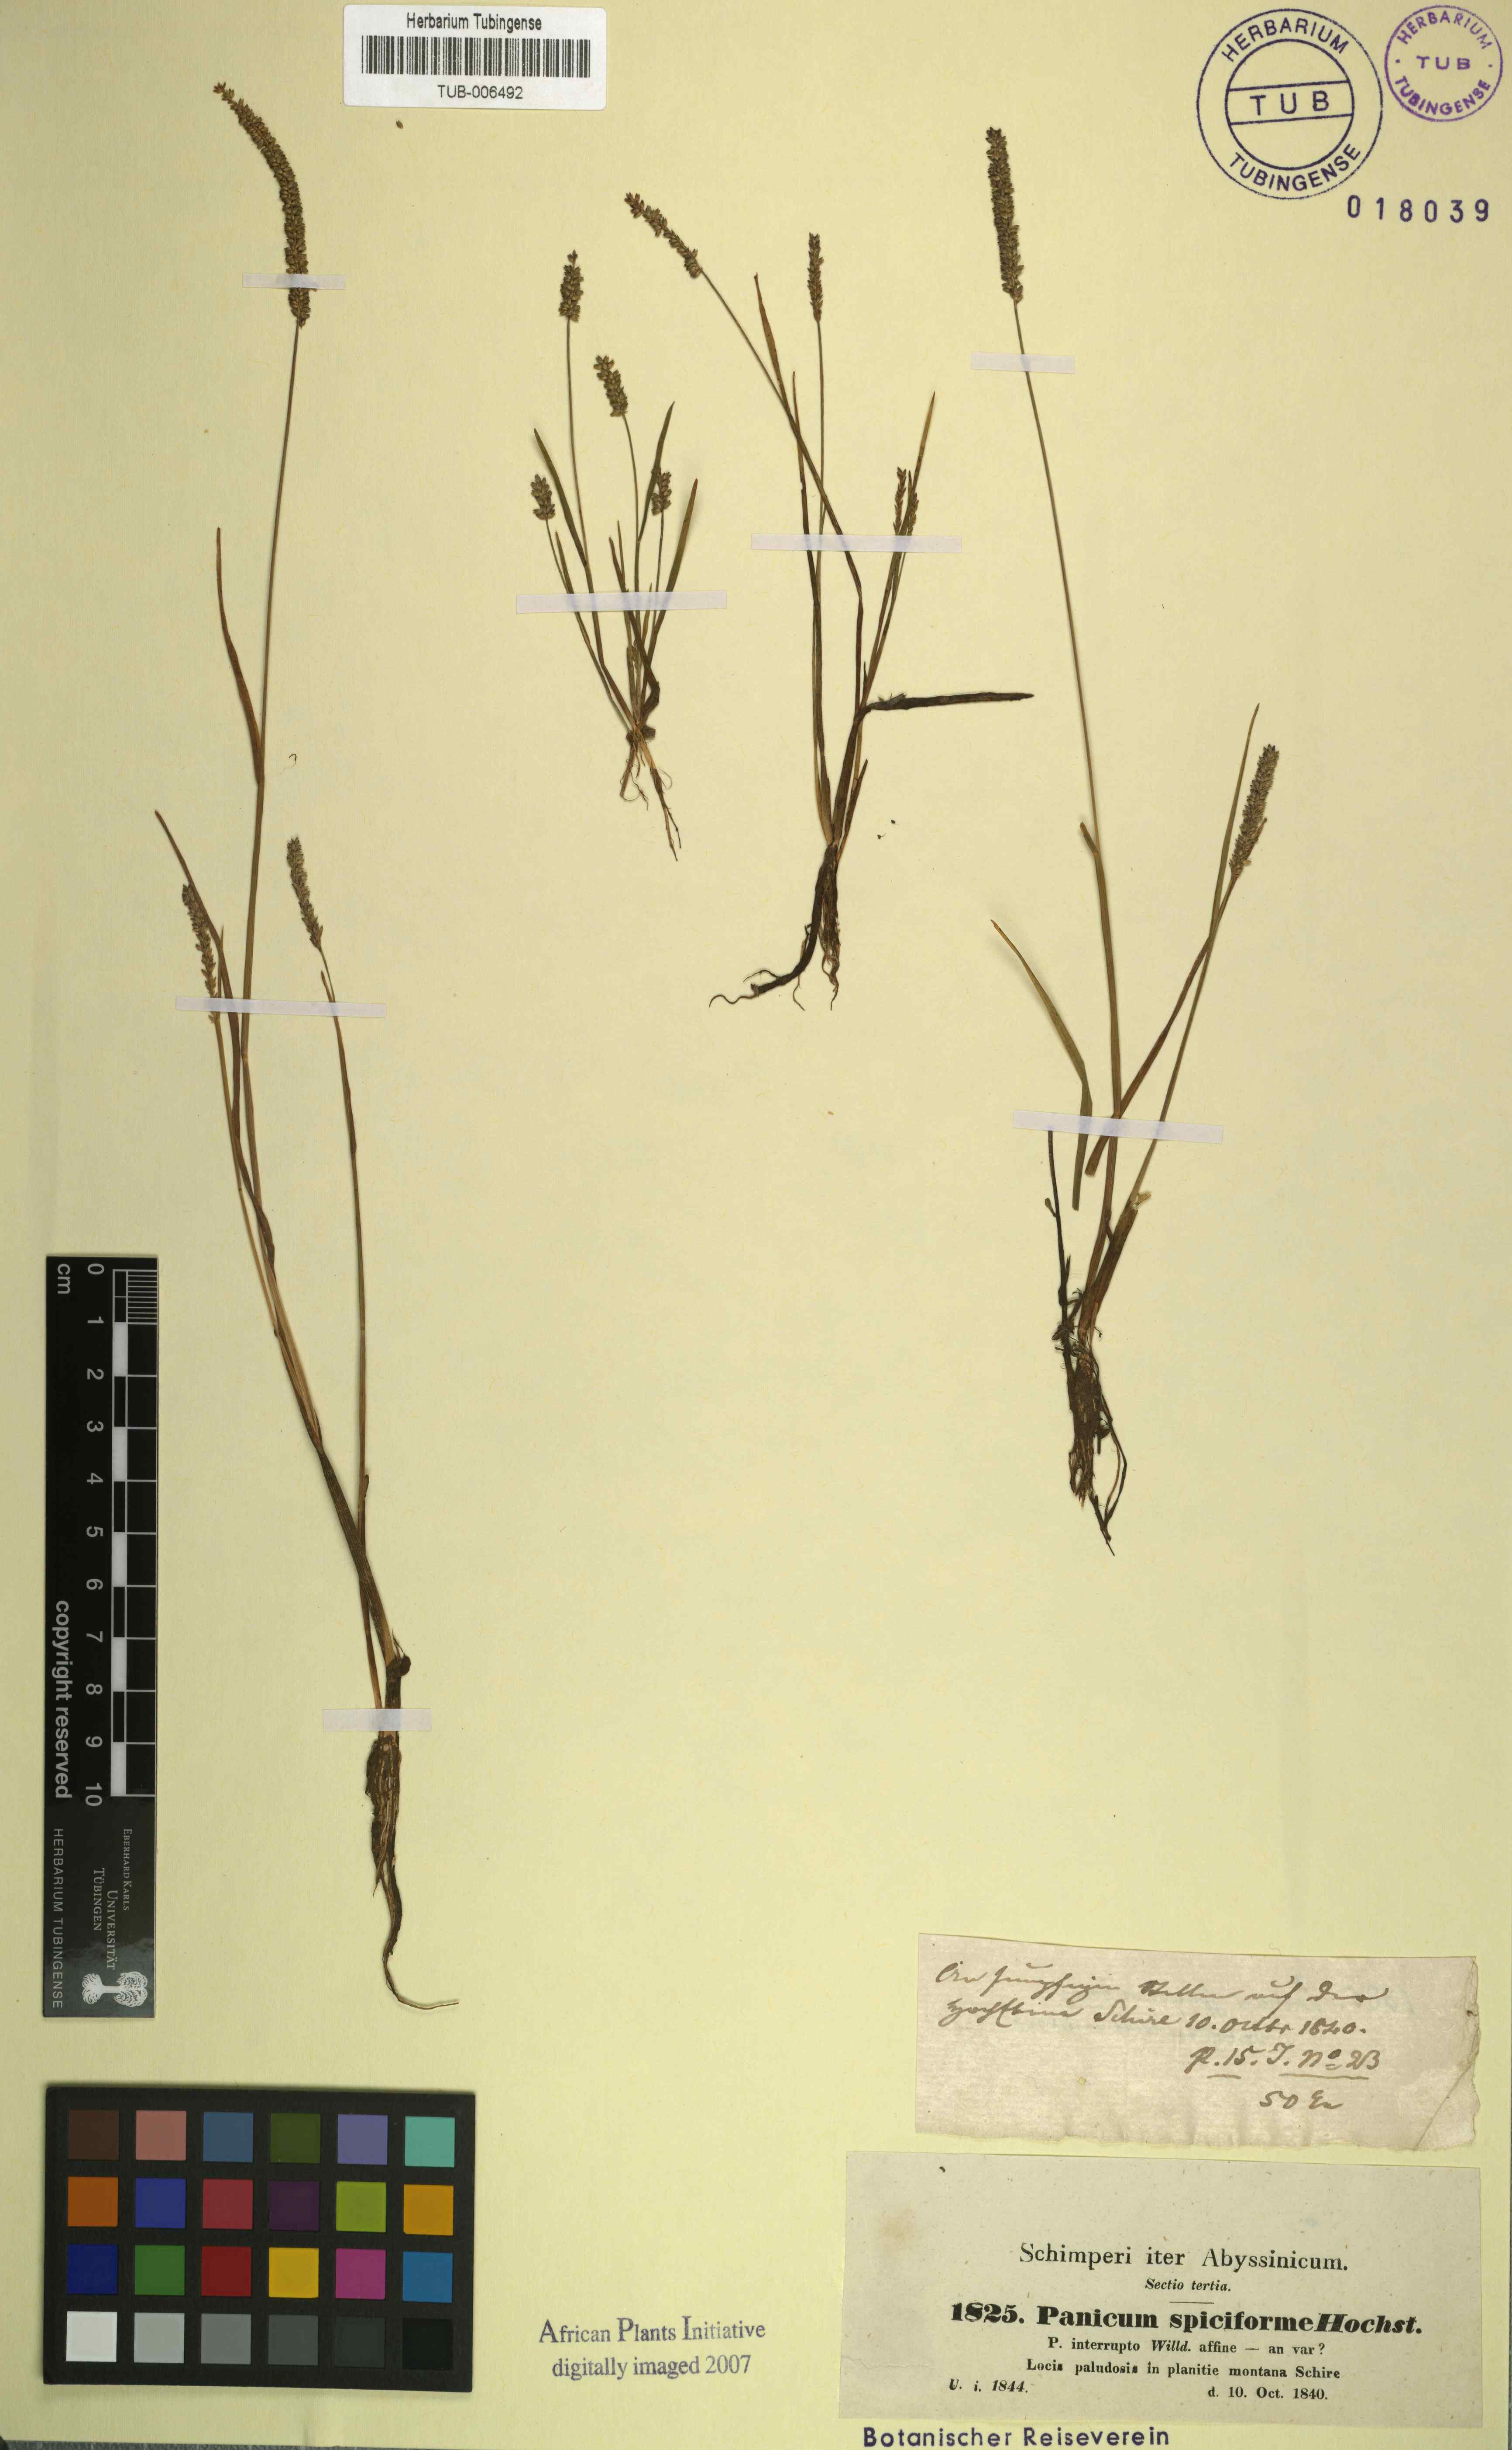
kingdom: Plantae
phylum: Tracheophyta
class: Liliopsida
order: Poales
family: Poaceae
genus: Sacciolepis
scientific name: Sacciolepis myosuroides
